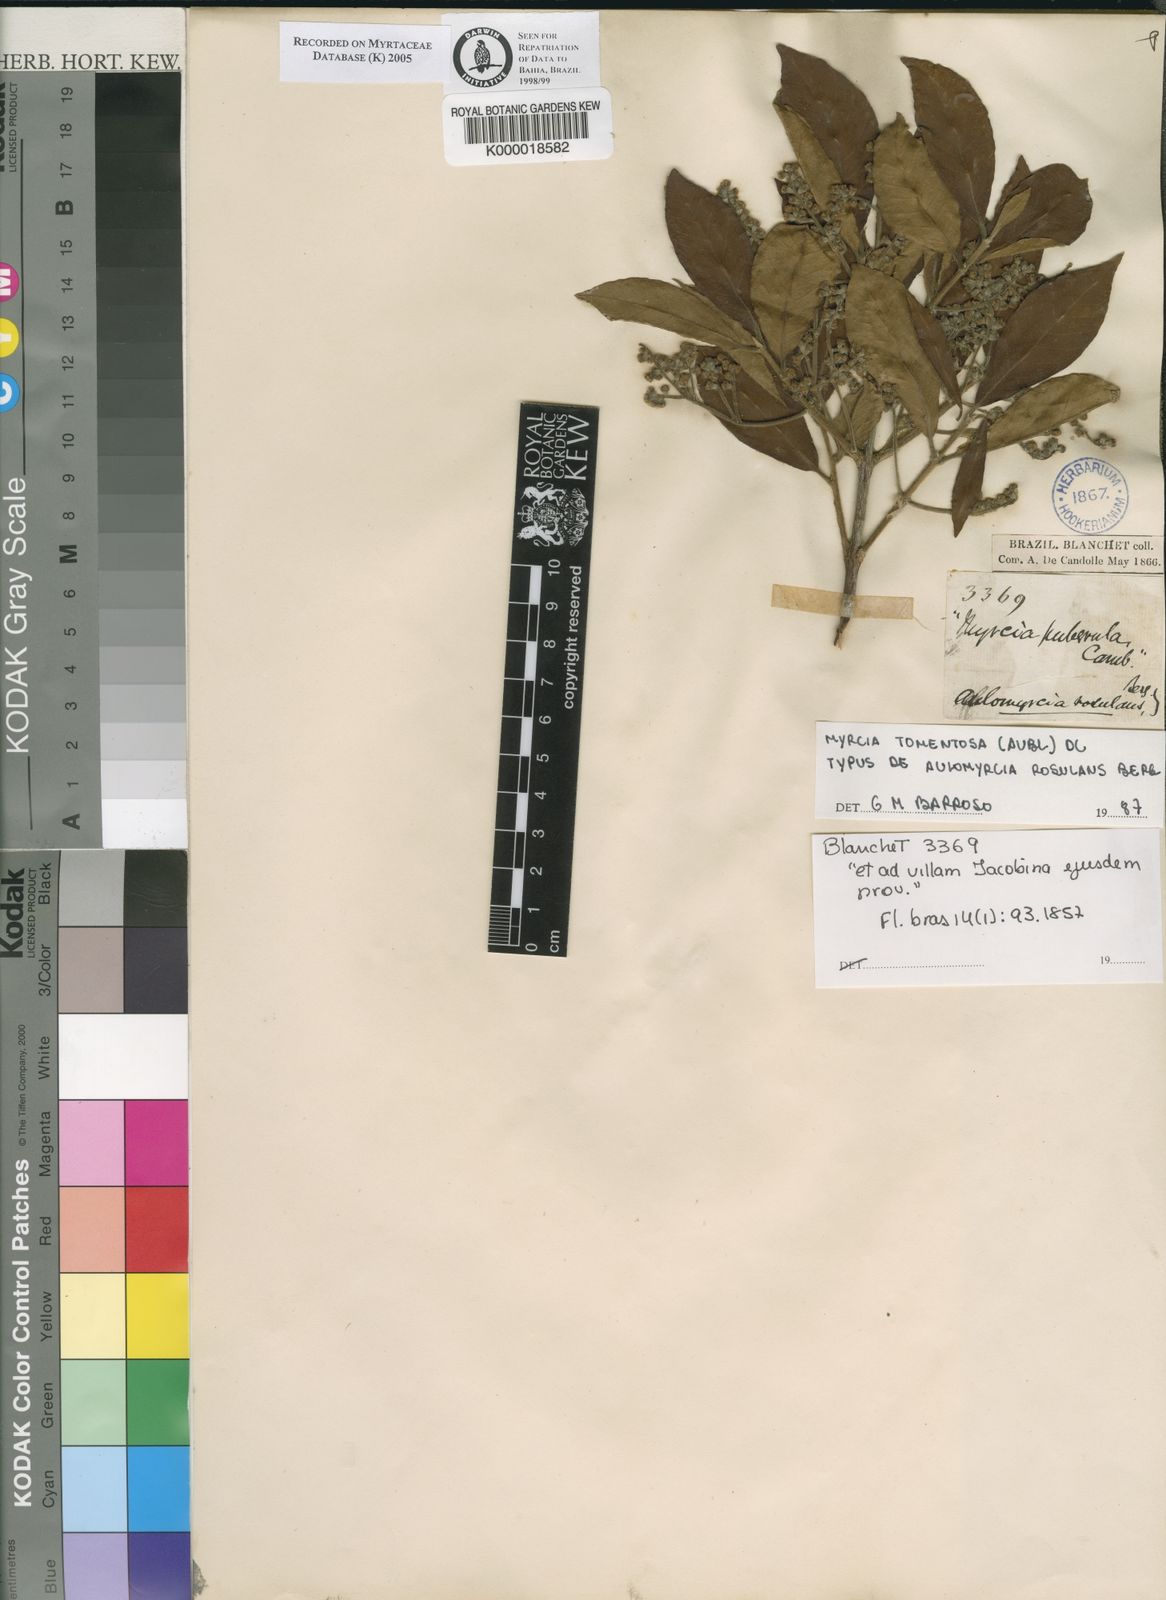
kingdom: Plantae
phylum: Tracheophyta
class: Magnoliopsida
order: Myrtales
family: Myrtaceae
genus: Myrcia
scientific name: Myrcia tomentosa
